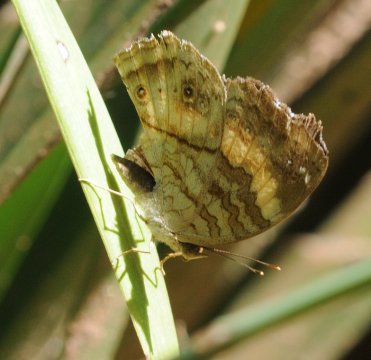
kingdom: Animalia
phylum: Arthropoda
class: Insecta
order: Lepidoptera
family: Nymphalidae
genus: Junonia
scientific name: Junonia terea
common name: Soldier Pansy
